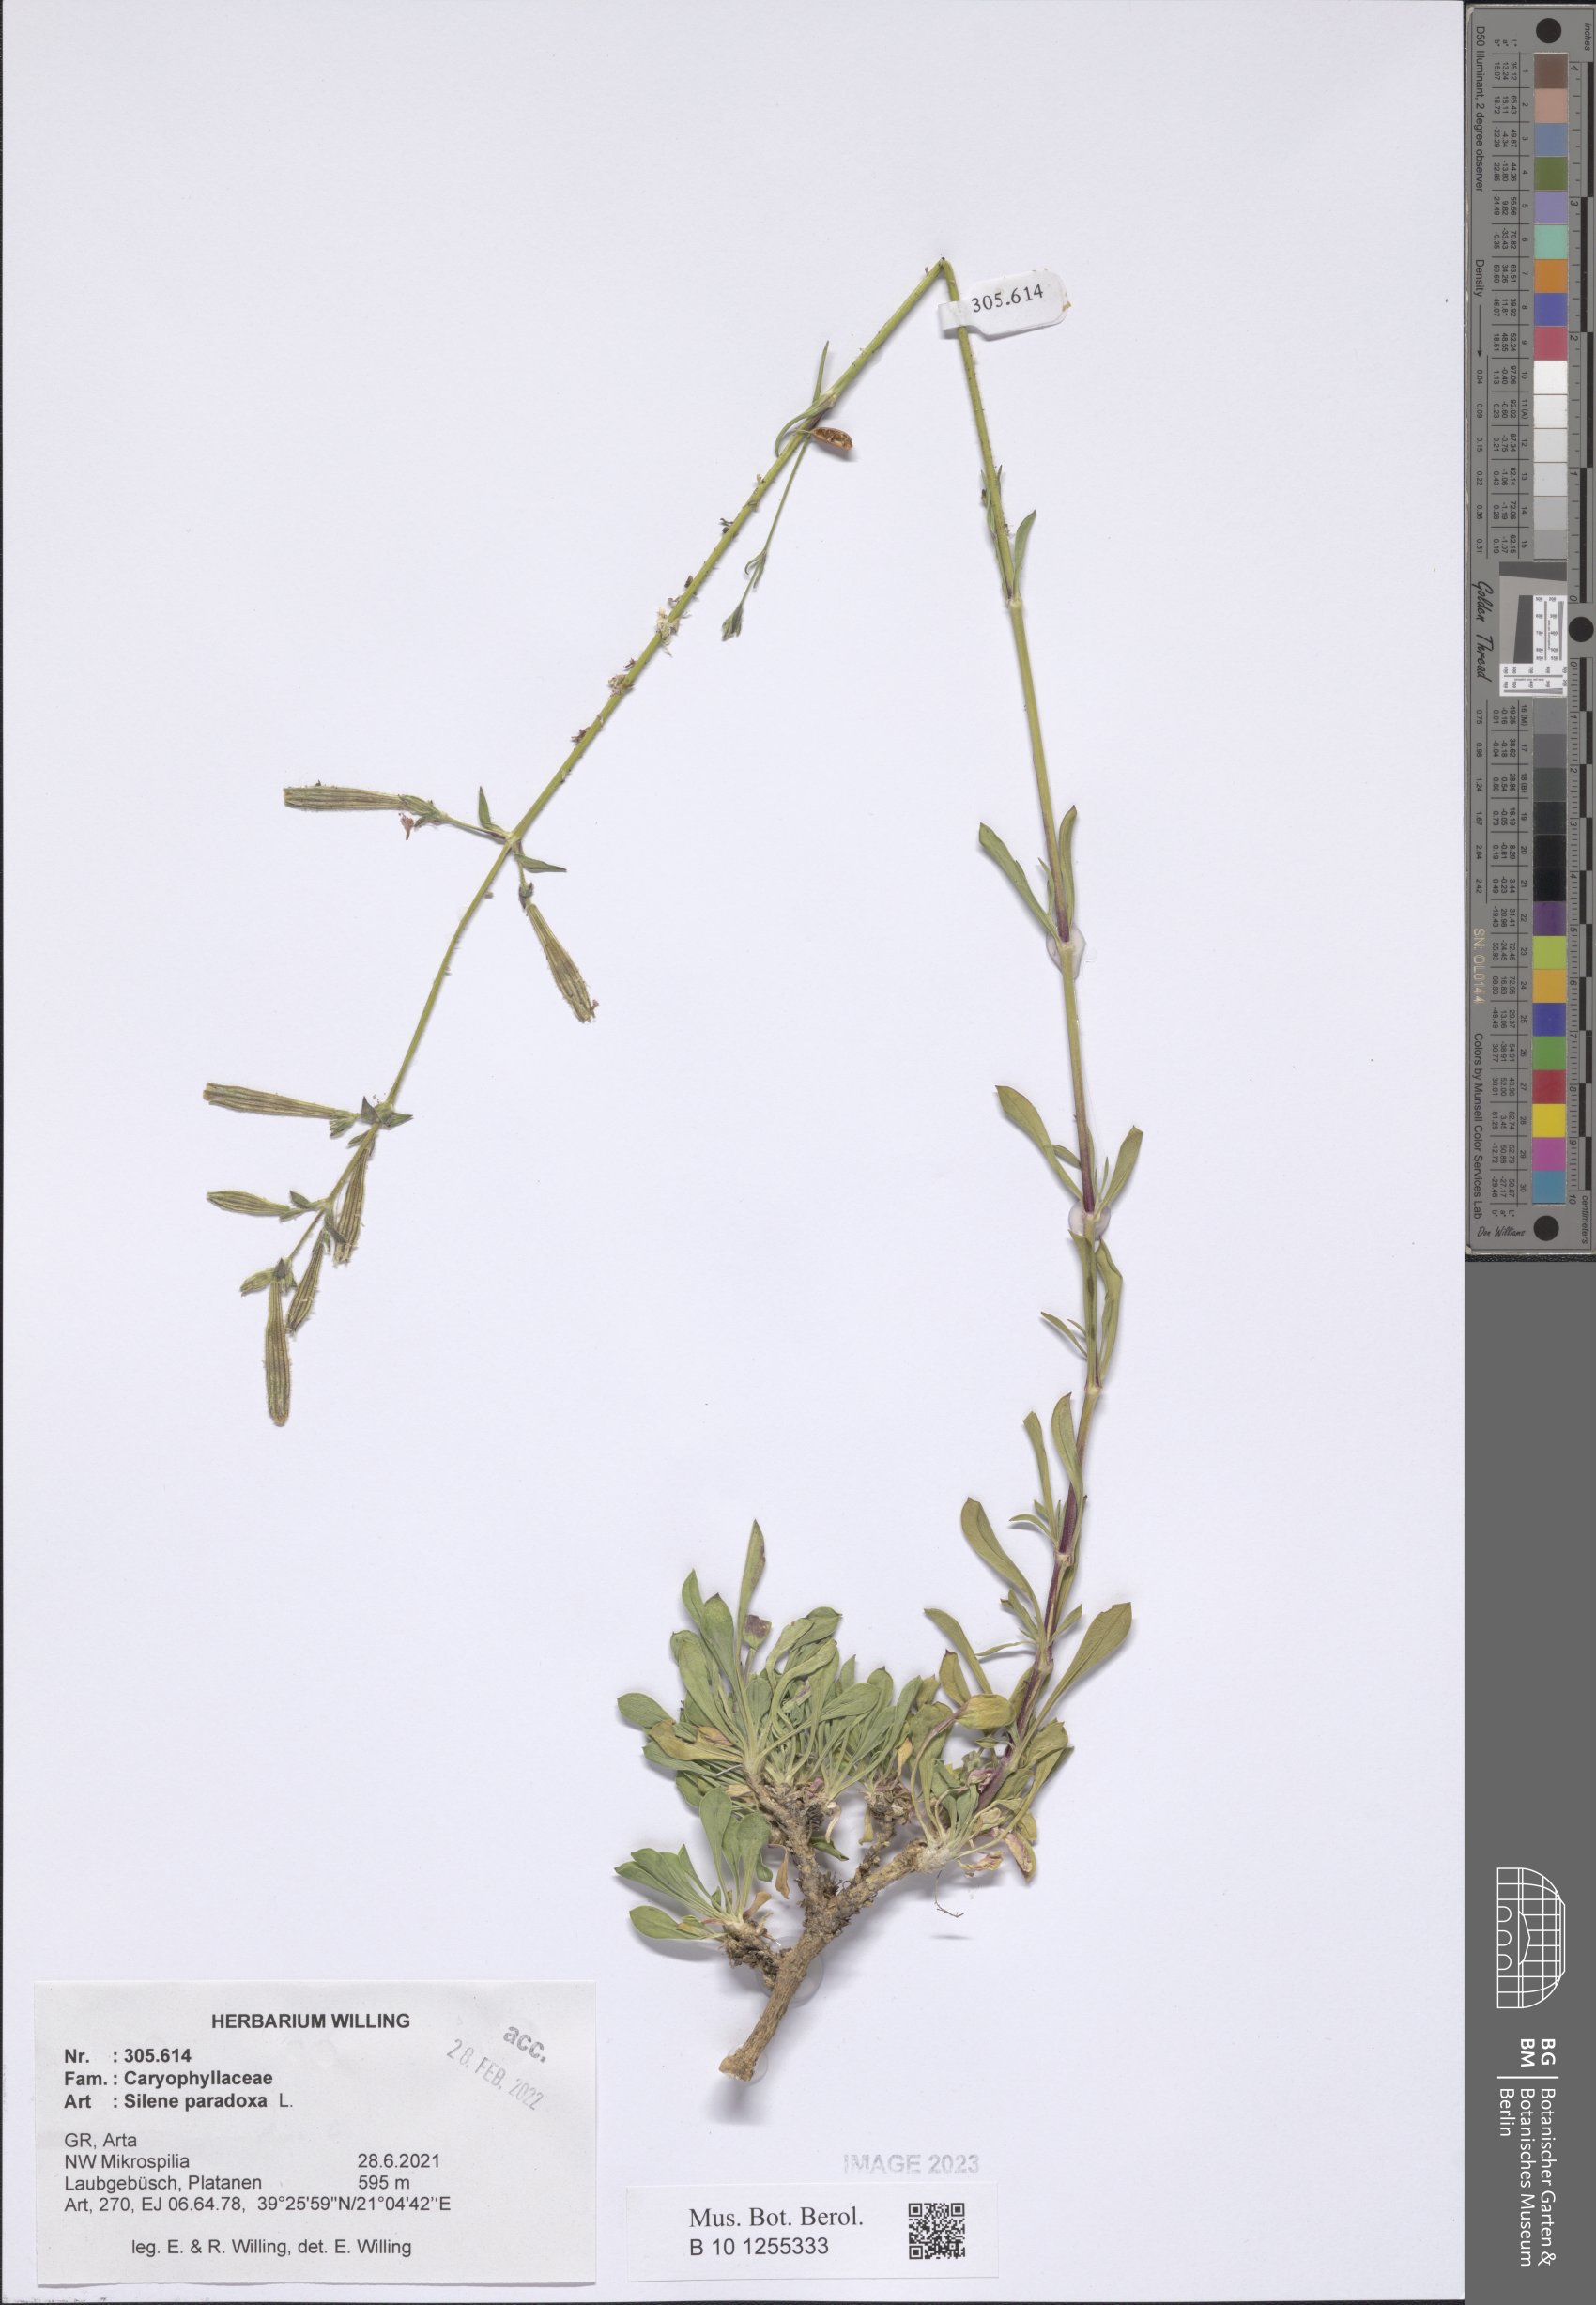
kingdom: Plantae
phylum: Tracheophyta
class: Magnoliopsida
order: Caryophyllales
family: Caryophyllaceae
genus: Silene
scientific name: Silene paradoxa
